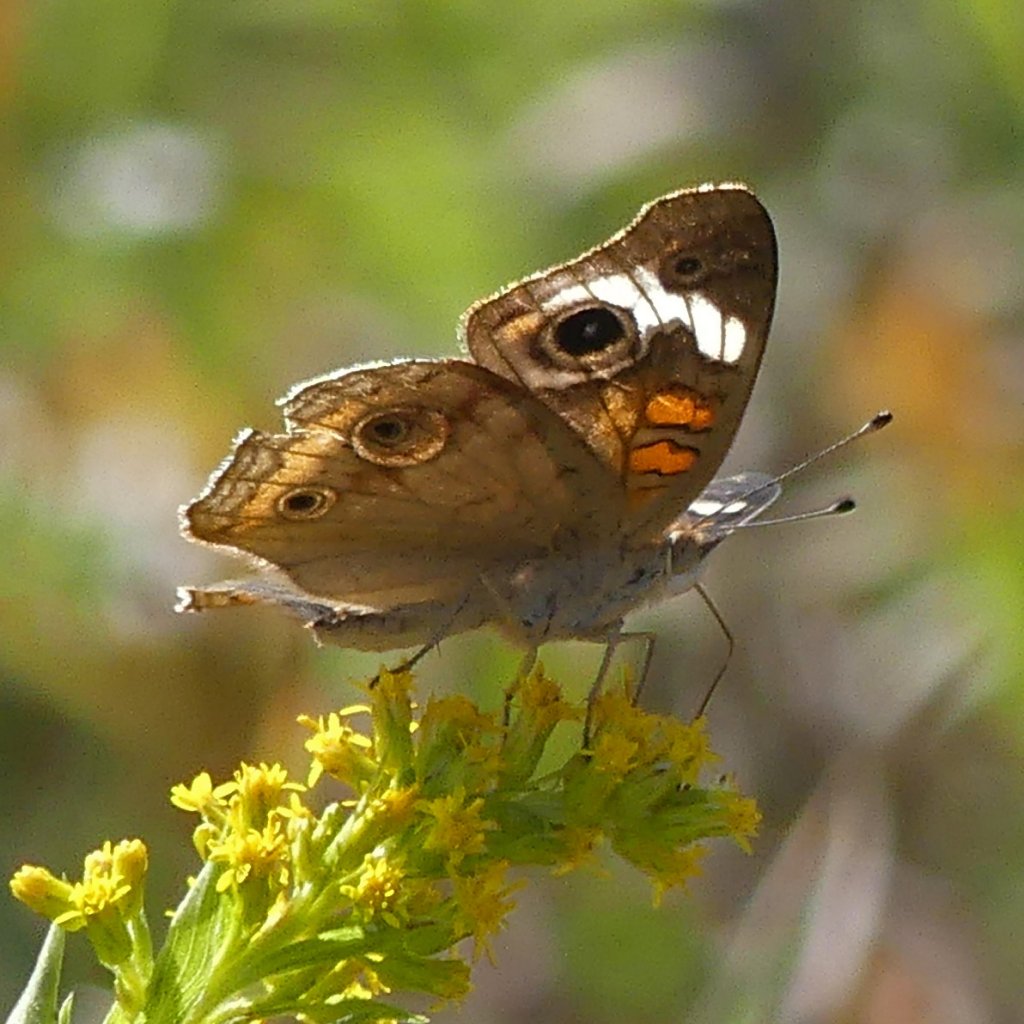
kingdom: Animalia
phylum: Arthropoda
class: Insecta
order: Lepidoptera
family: Nymphalidae
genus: Junonia
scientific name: Junonia coenia
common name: Common Buckeye
